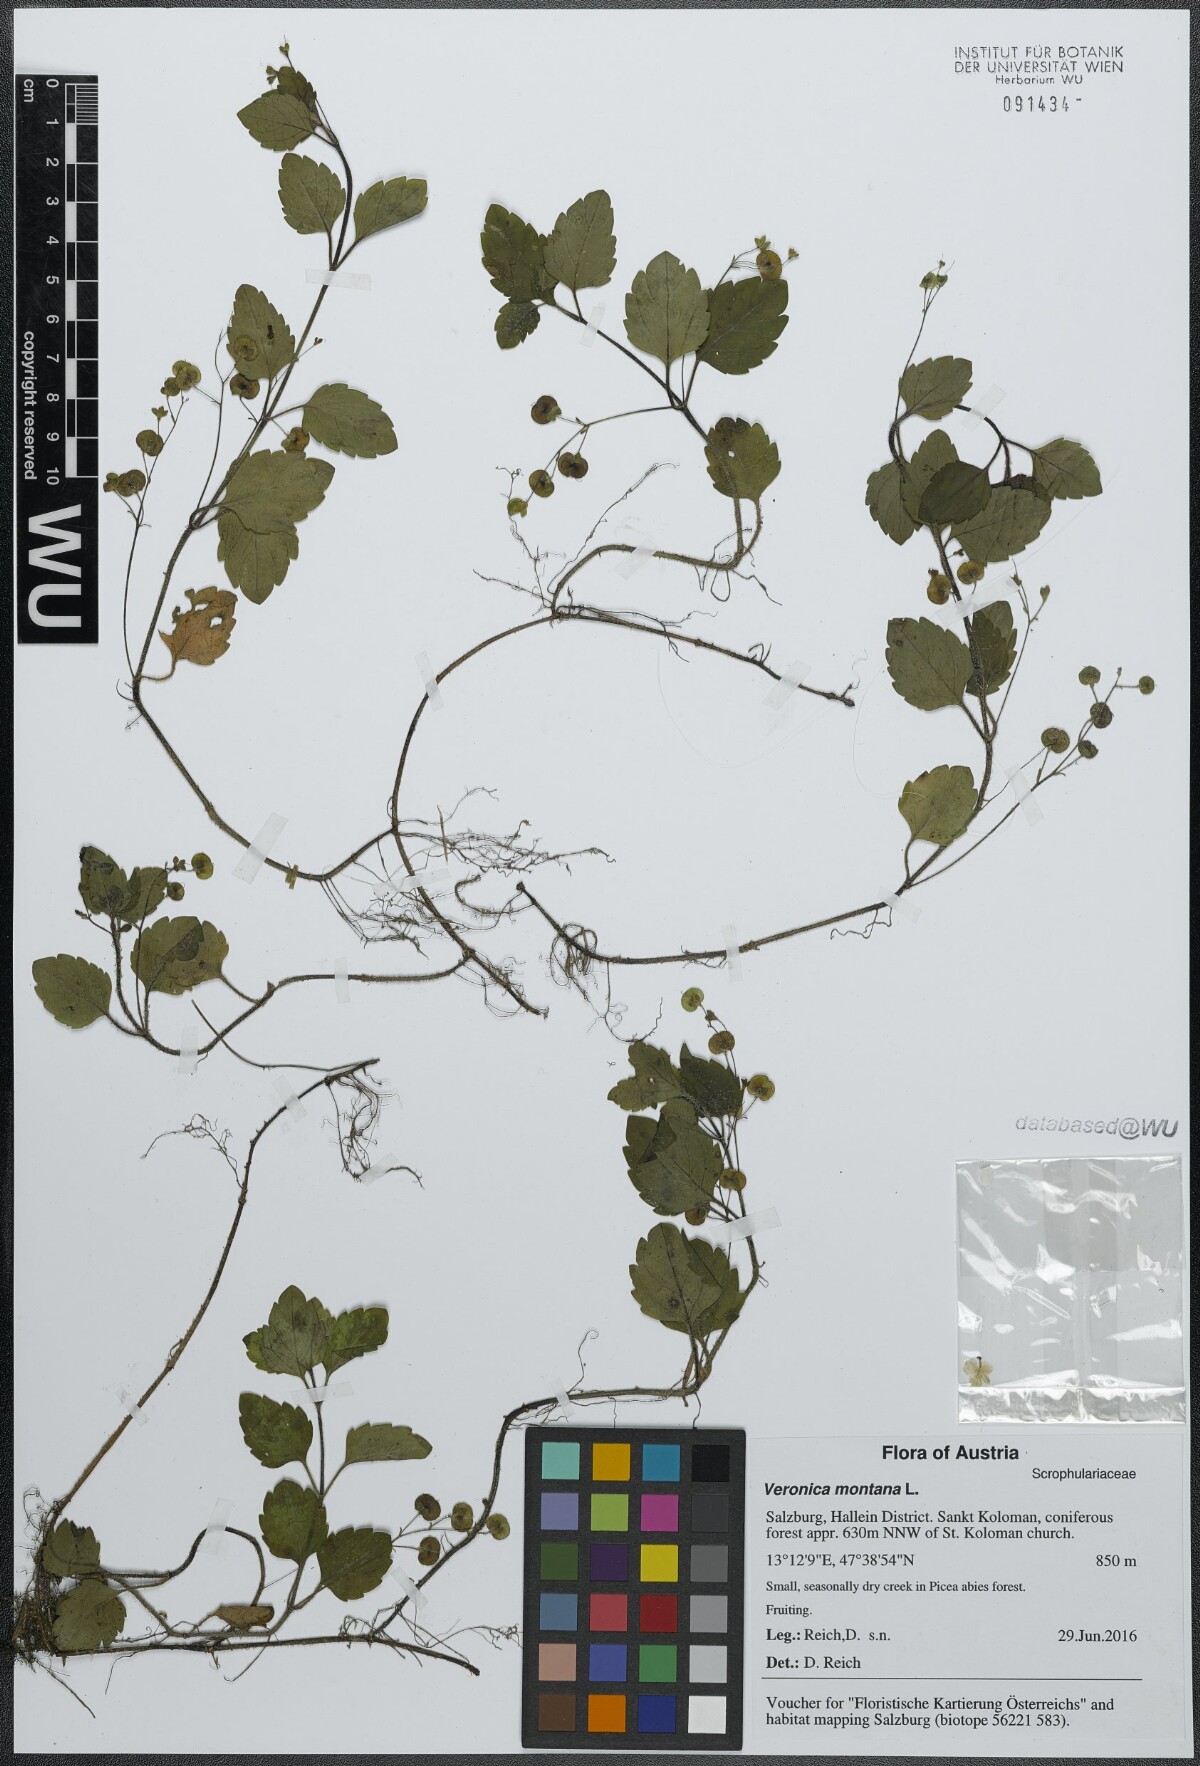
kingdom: Plantae
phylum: Tracheophyta
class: Magnoliopsida
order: Lamiales
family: Plantaginaceae
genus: Veronica
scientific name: Veronica montana
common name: Wood speedwell
